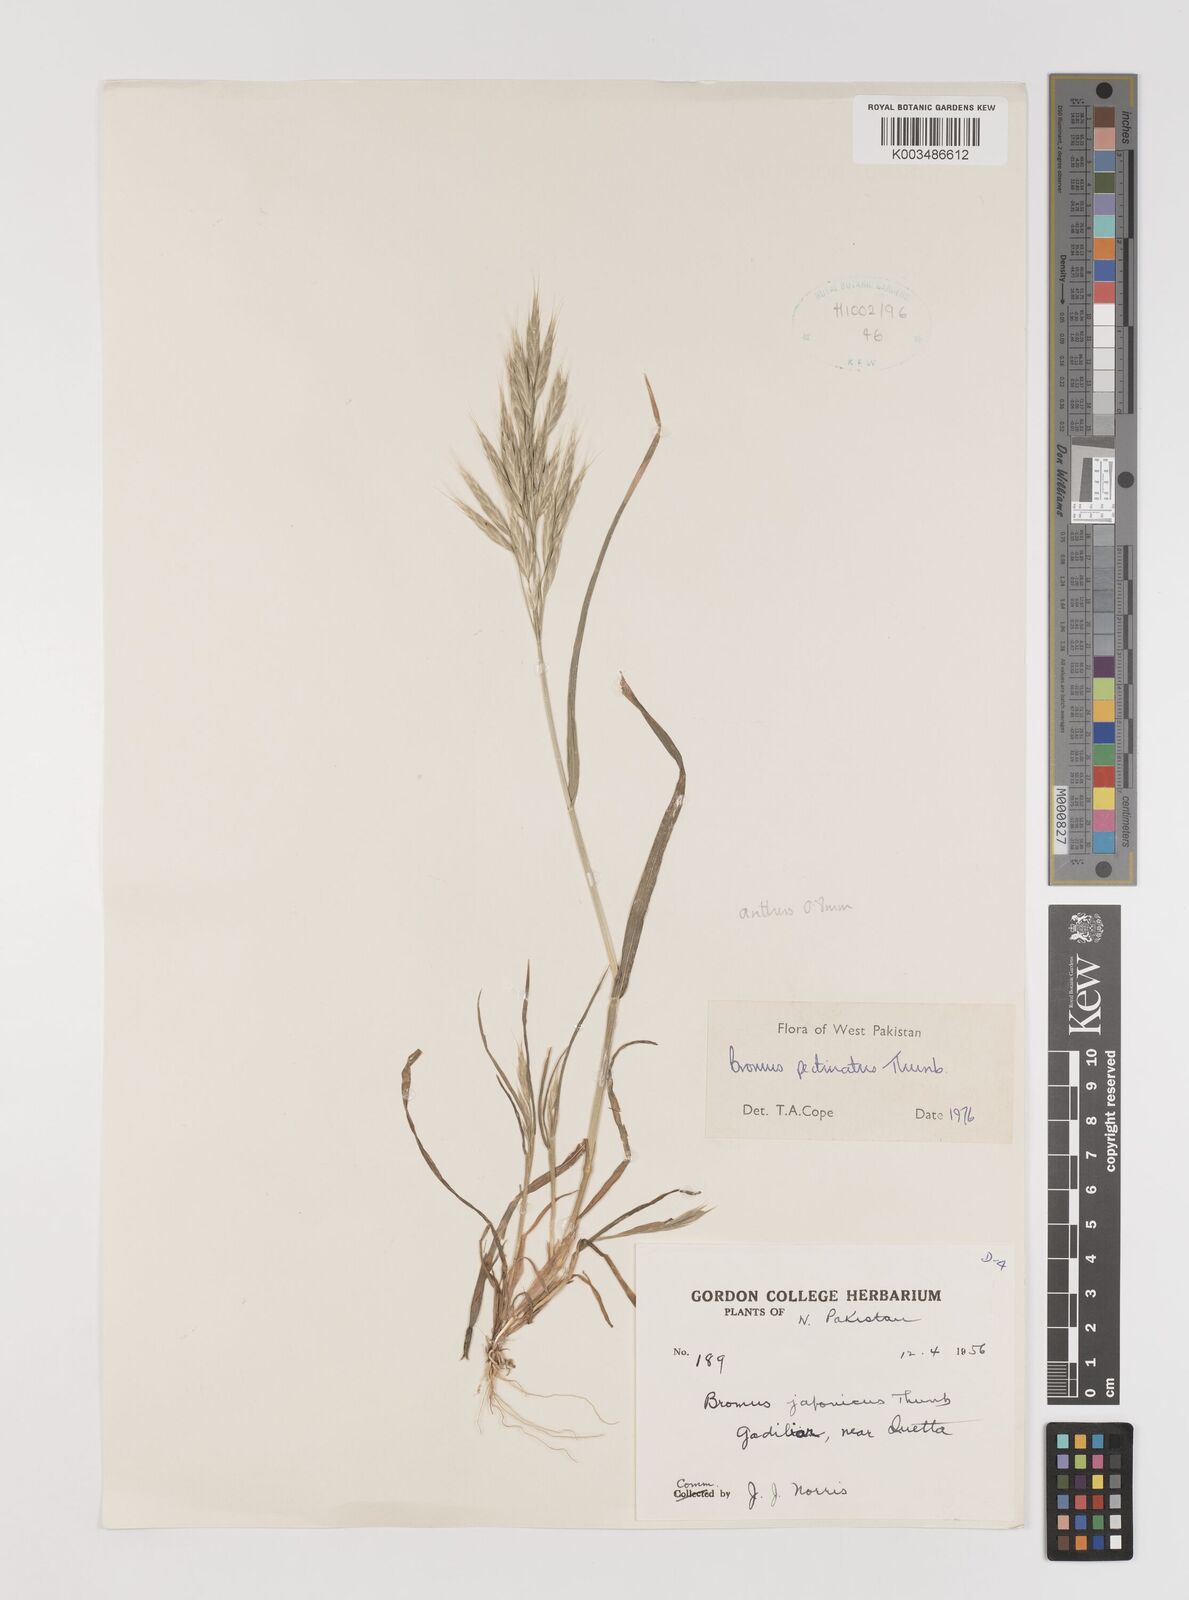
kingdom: Plantae
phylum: Tracheophyta
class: Liliopsida
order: Poales
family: Poaceae
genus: Bromus
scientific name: Bromus pectinatus
